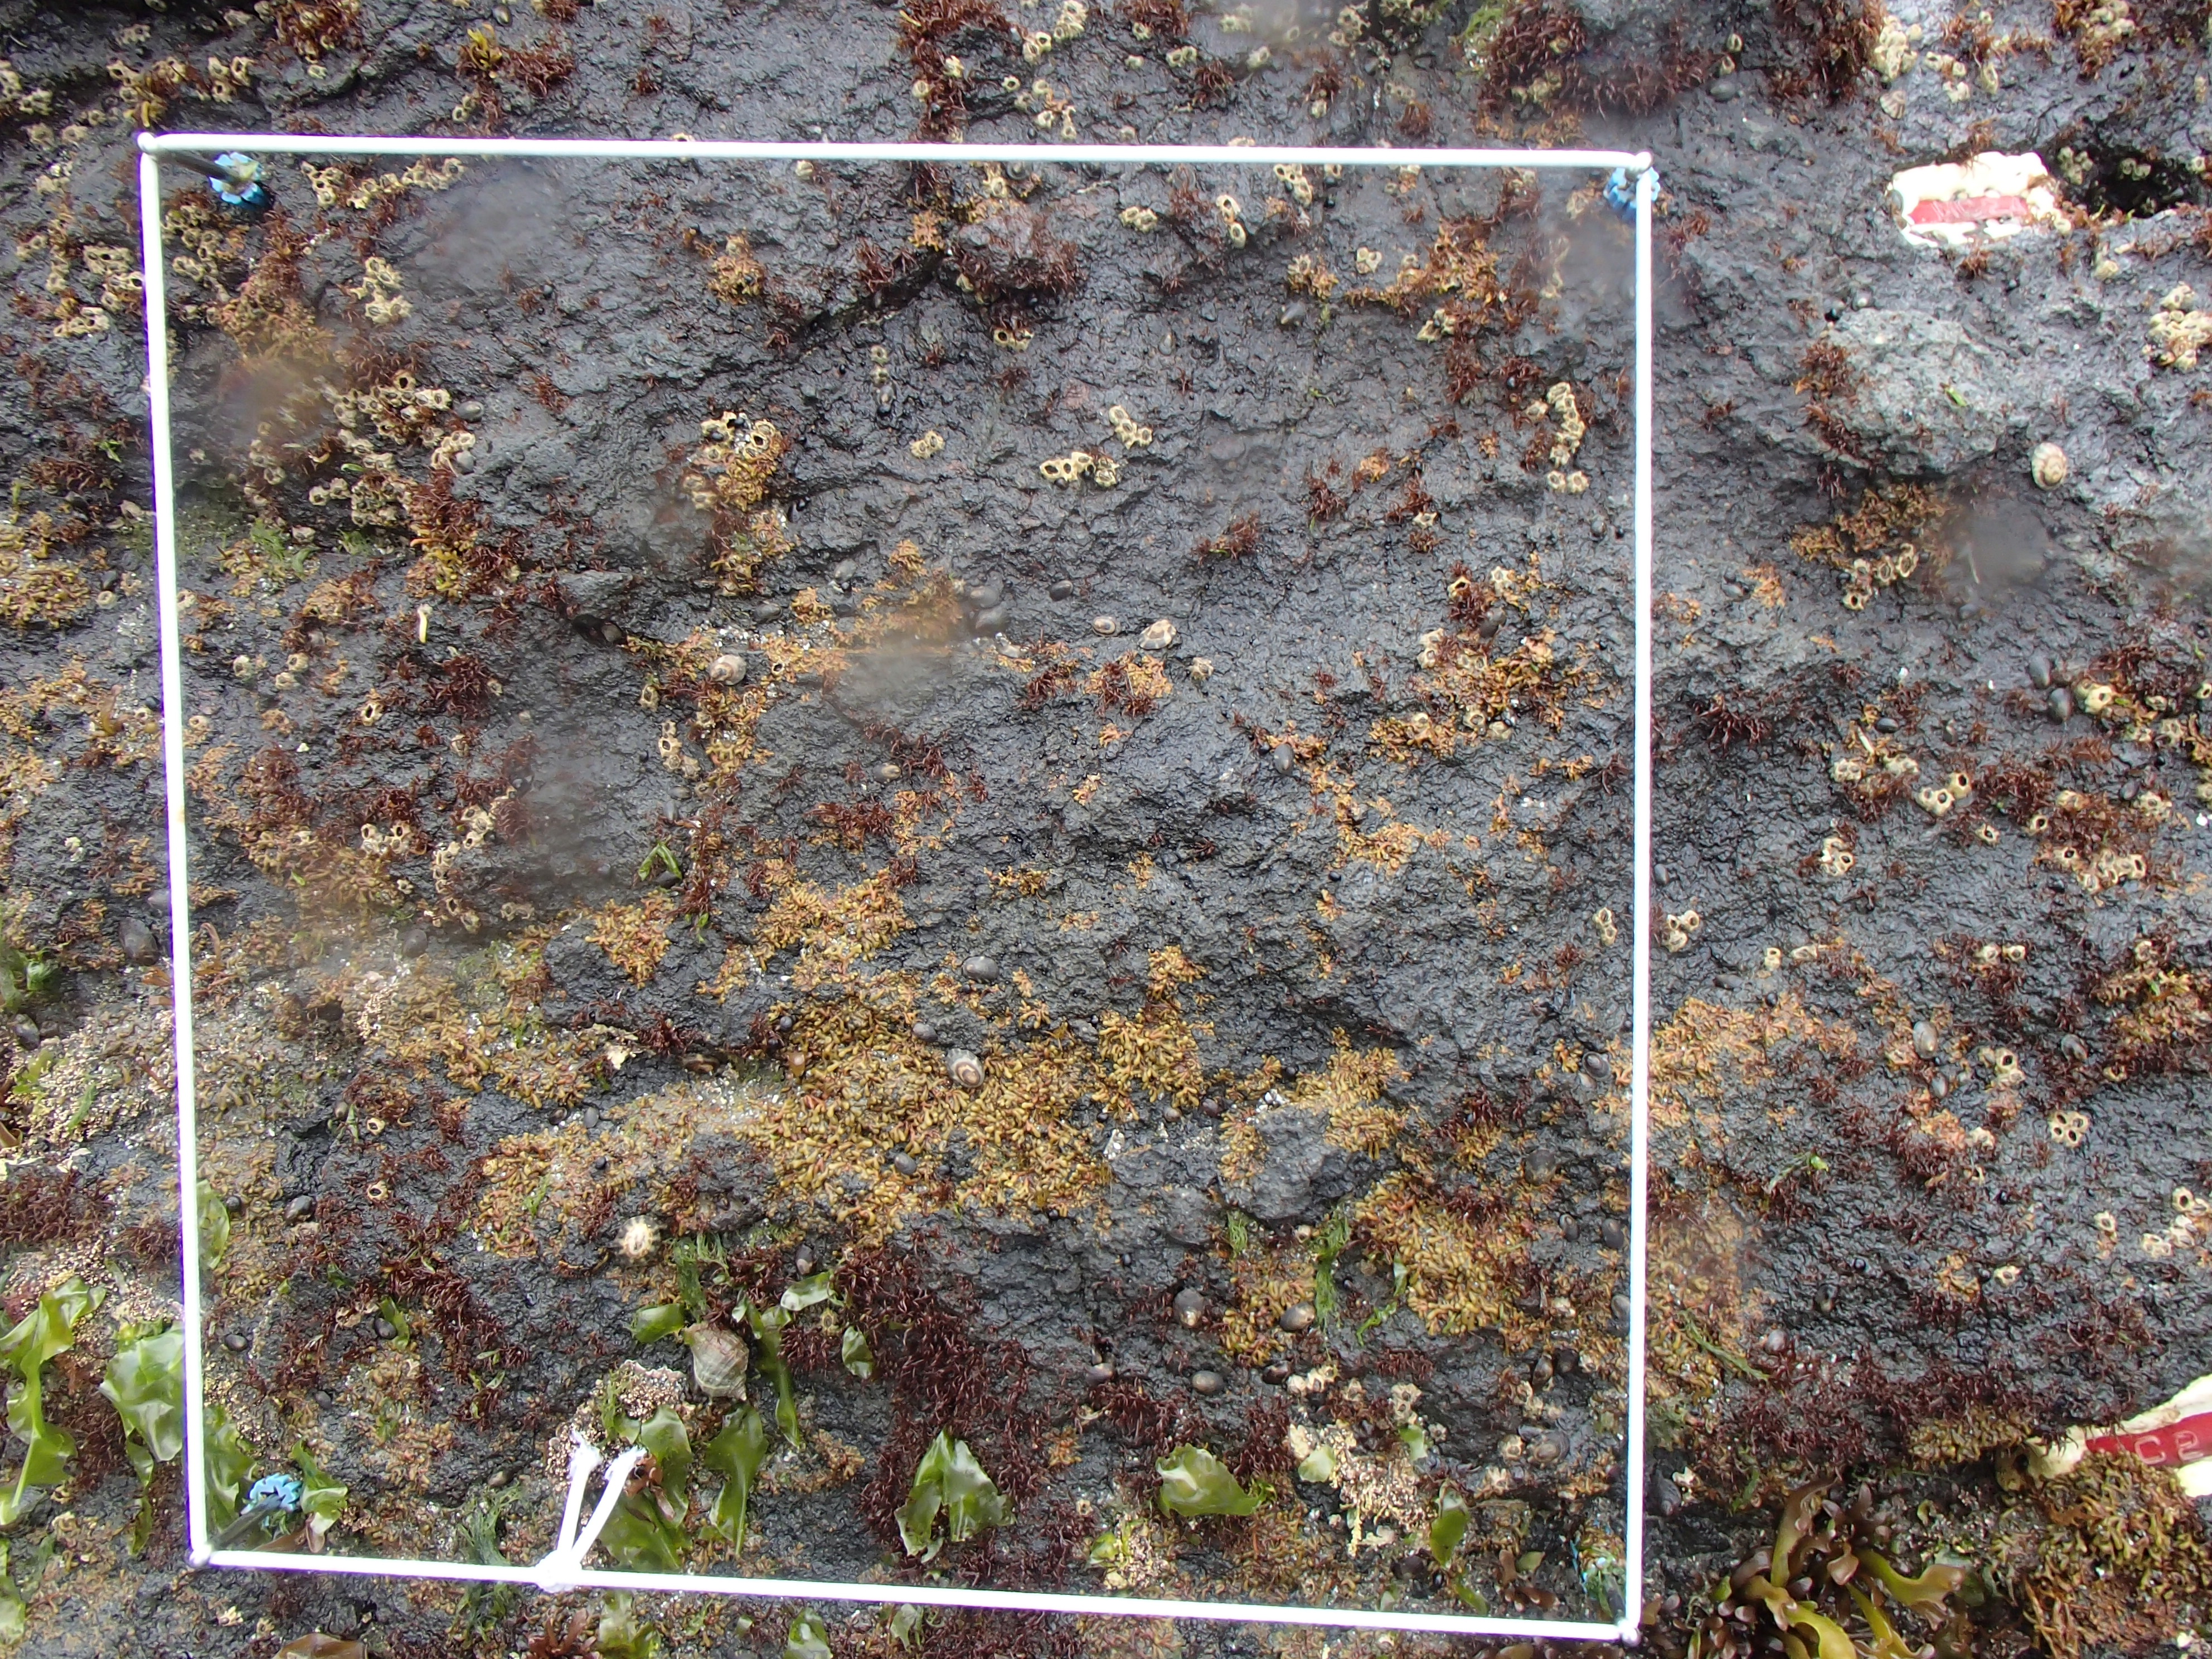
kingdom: Animalia
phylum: Arthropoda
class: Maxillopoda
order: Sessilia
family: Chthamalidae
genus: Chthamalus
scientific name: Chthamalus dalli
